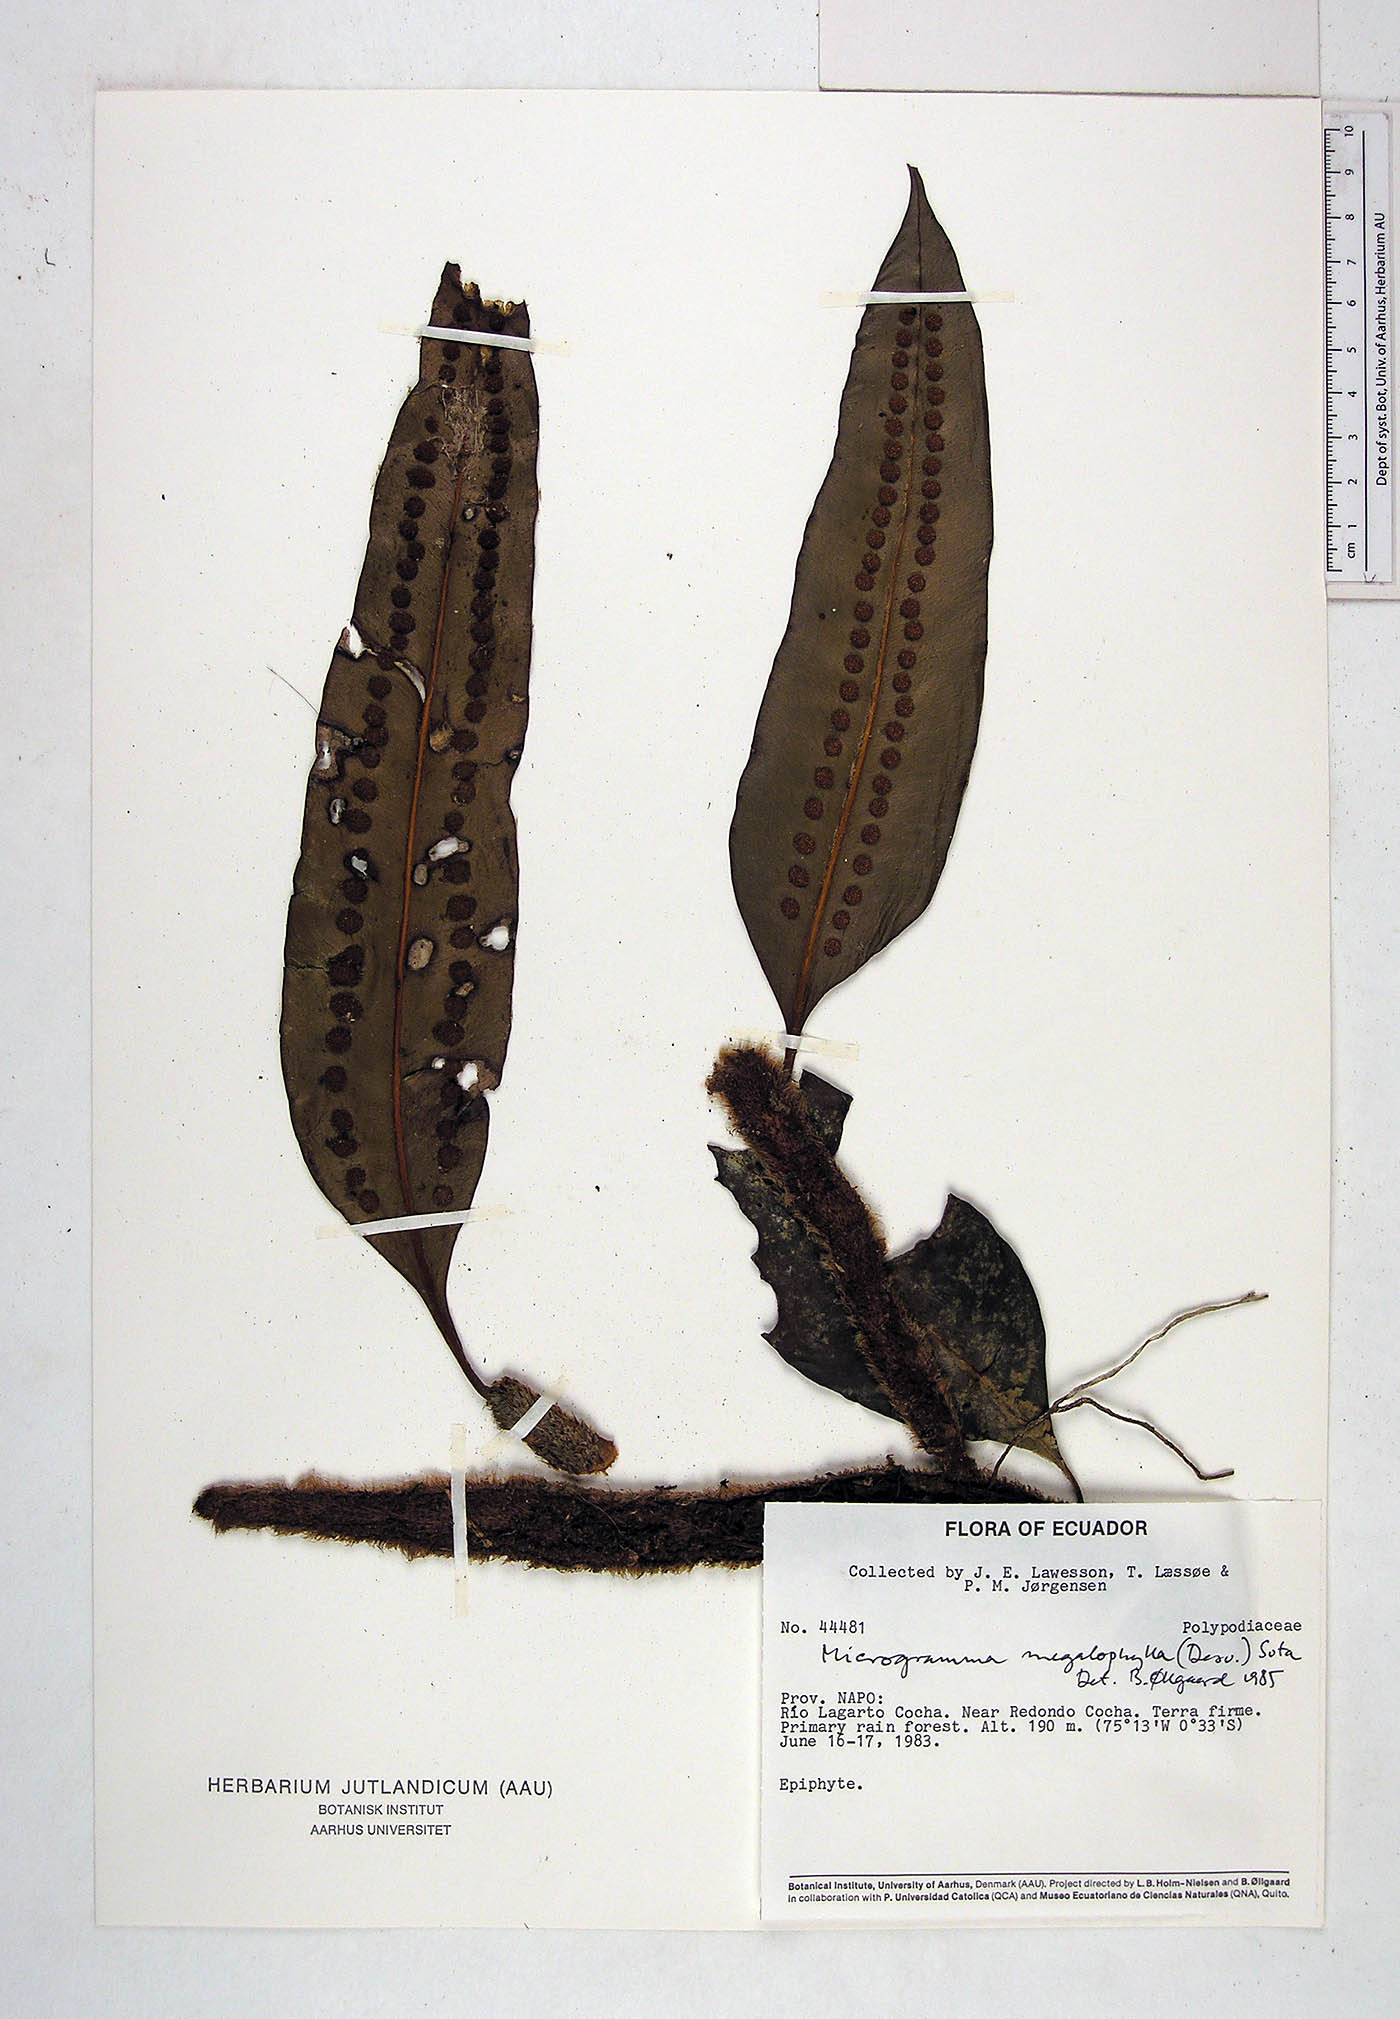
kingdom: Plantae
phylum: Tracheophyta
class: Polypodiopsida
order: Polypodiales
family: Polypodiaceae
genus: Microgramma
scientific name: Microgramma megalophylla
